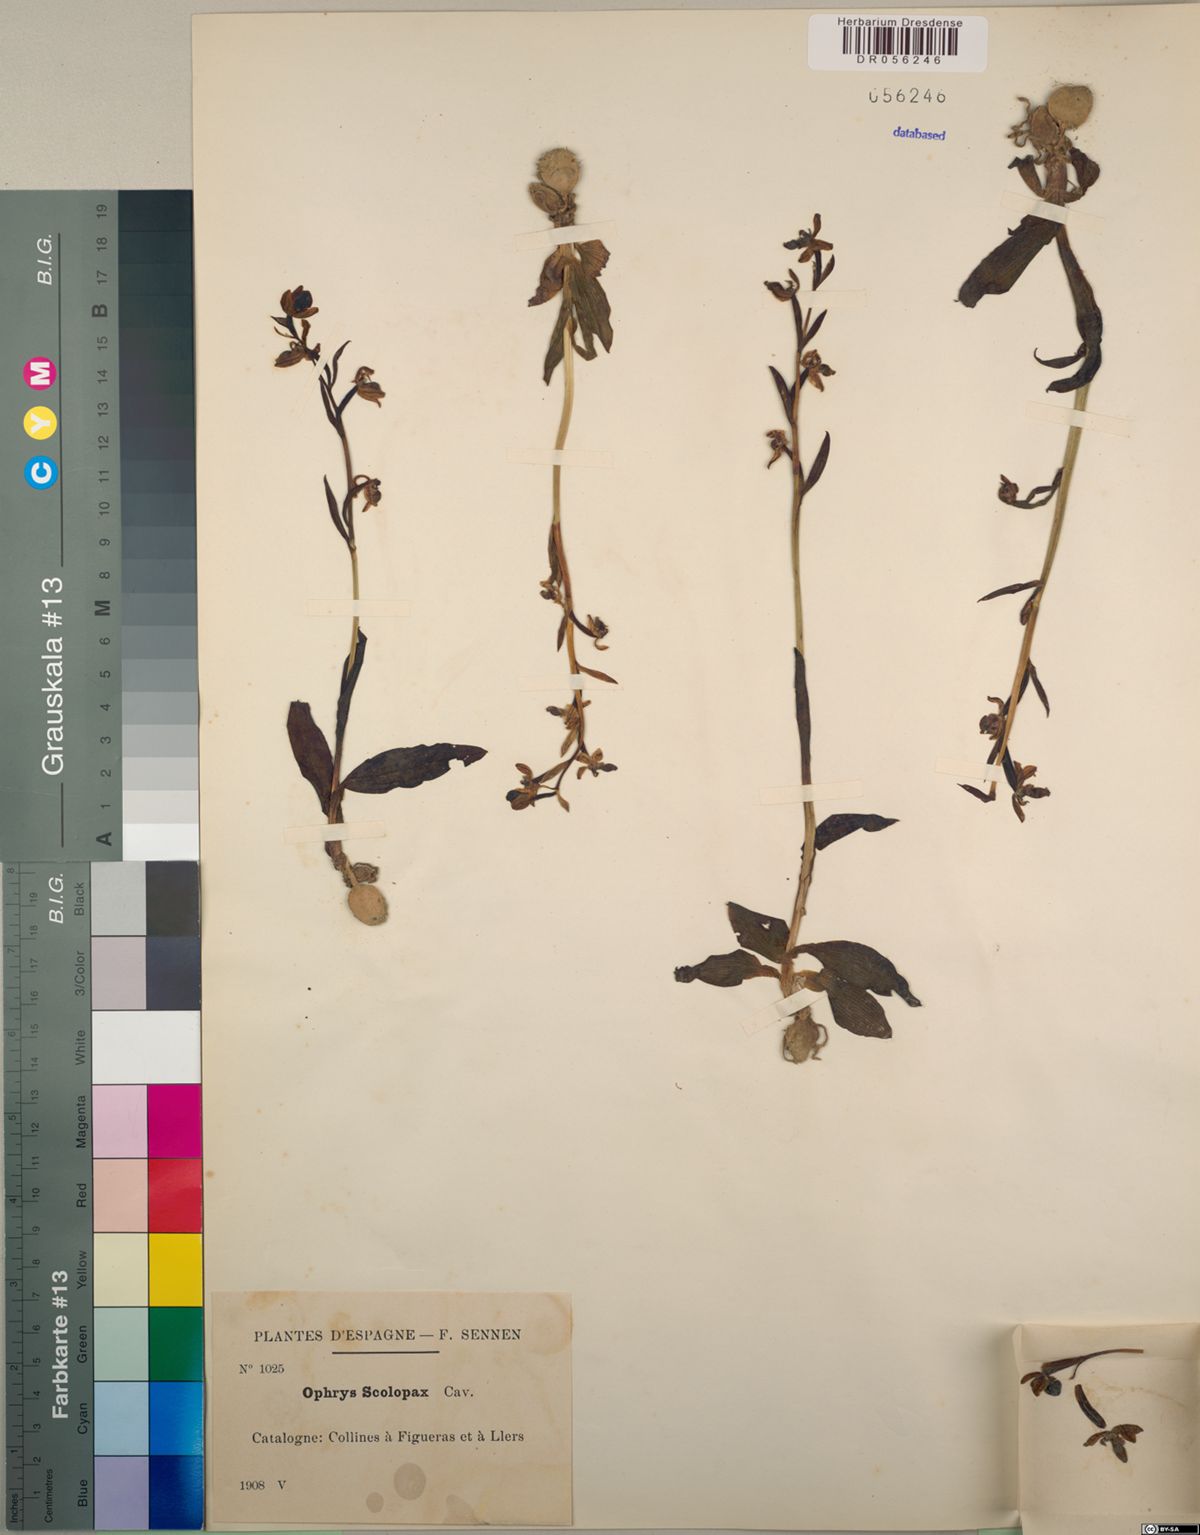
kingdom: Plantae
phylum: Tracheophyta
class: Liliopsida
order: Asparagales
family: Orchidaceae
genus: Ophrys
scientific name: Ophrys scolopax
